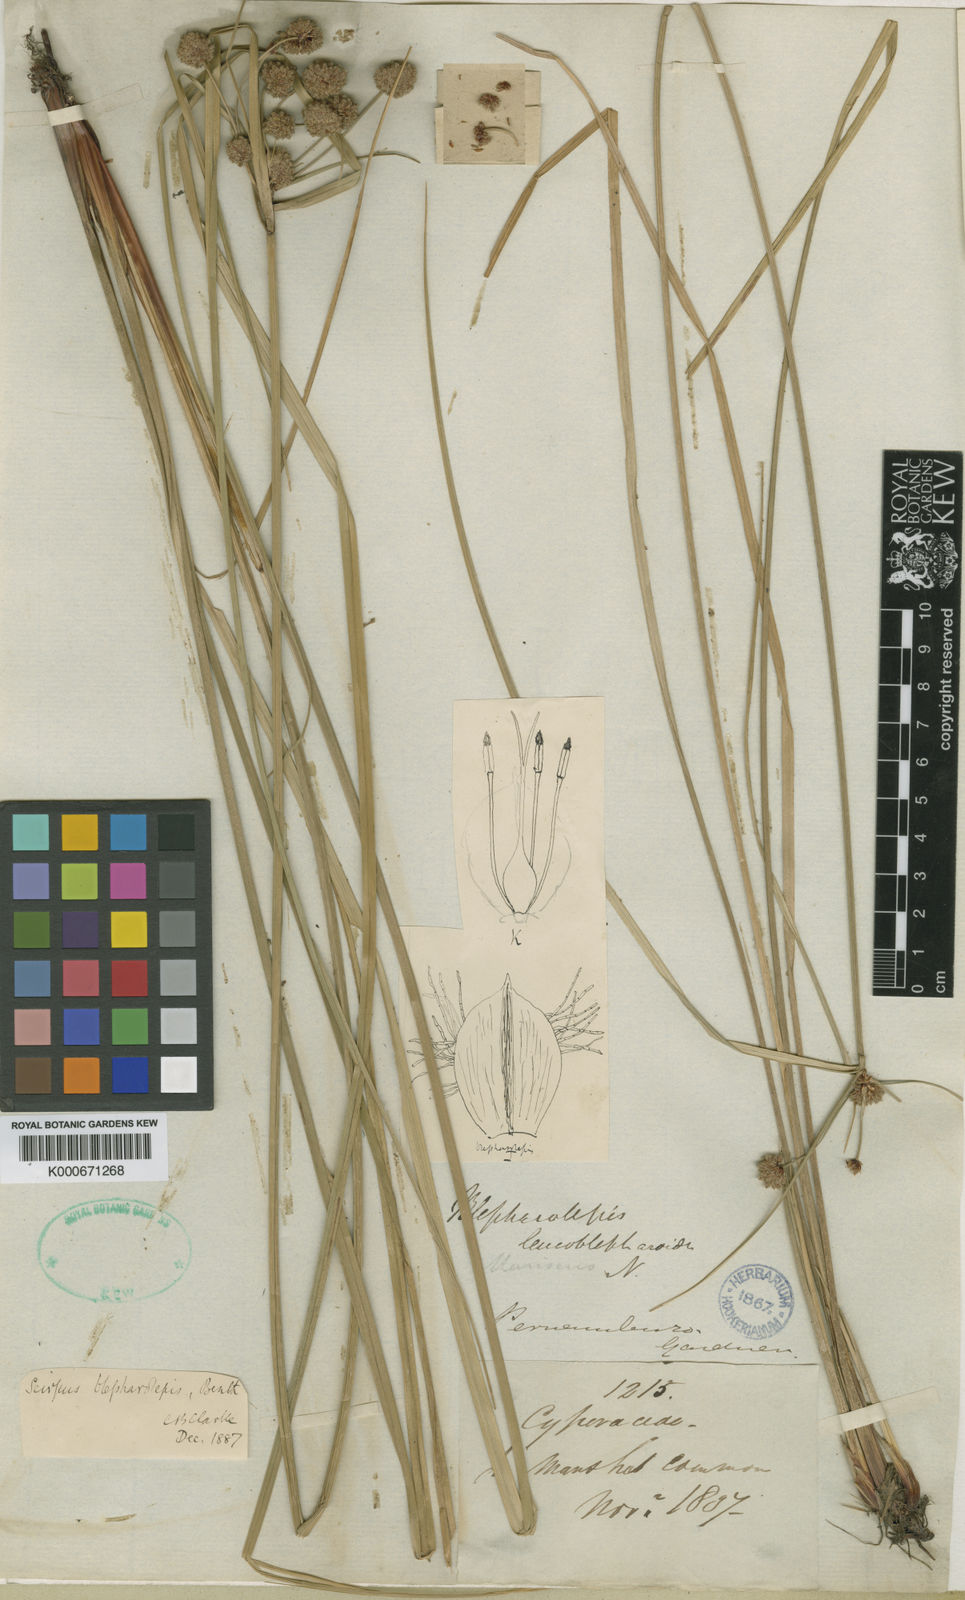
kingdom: Plantae
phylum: Tracheophyta
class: Liliopsida
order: Poales
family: Cyperaceae
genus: Scirpoides
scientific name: Scirpoides
